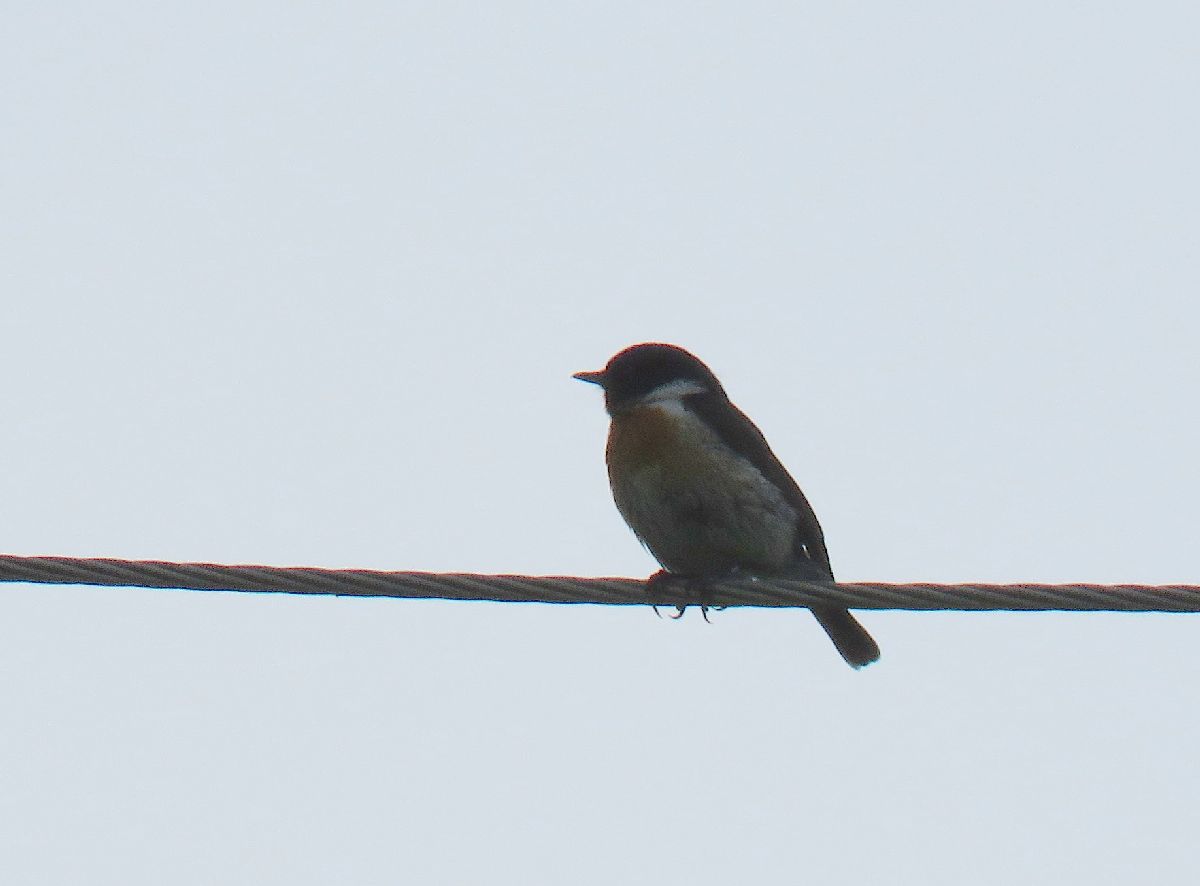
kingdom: Animalia
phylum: Chordata
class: Aves
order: Passeriformes
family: Muscicapidae
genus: Saxicola
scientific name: Saxicola maurus
